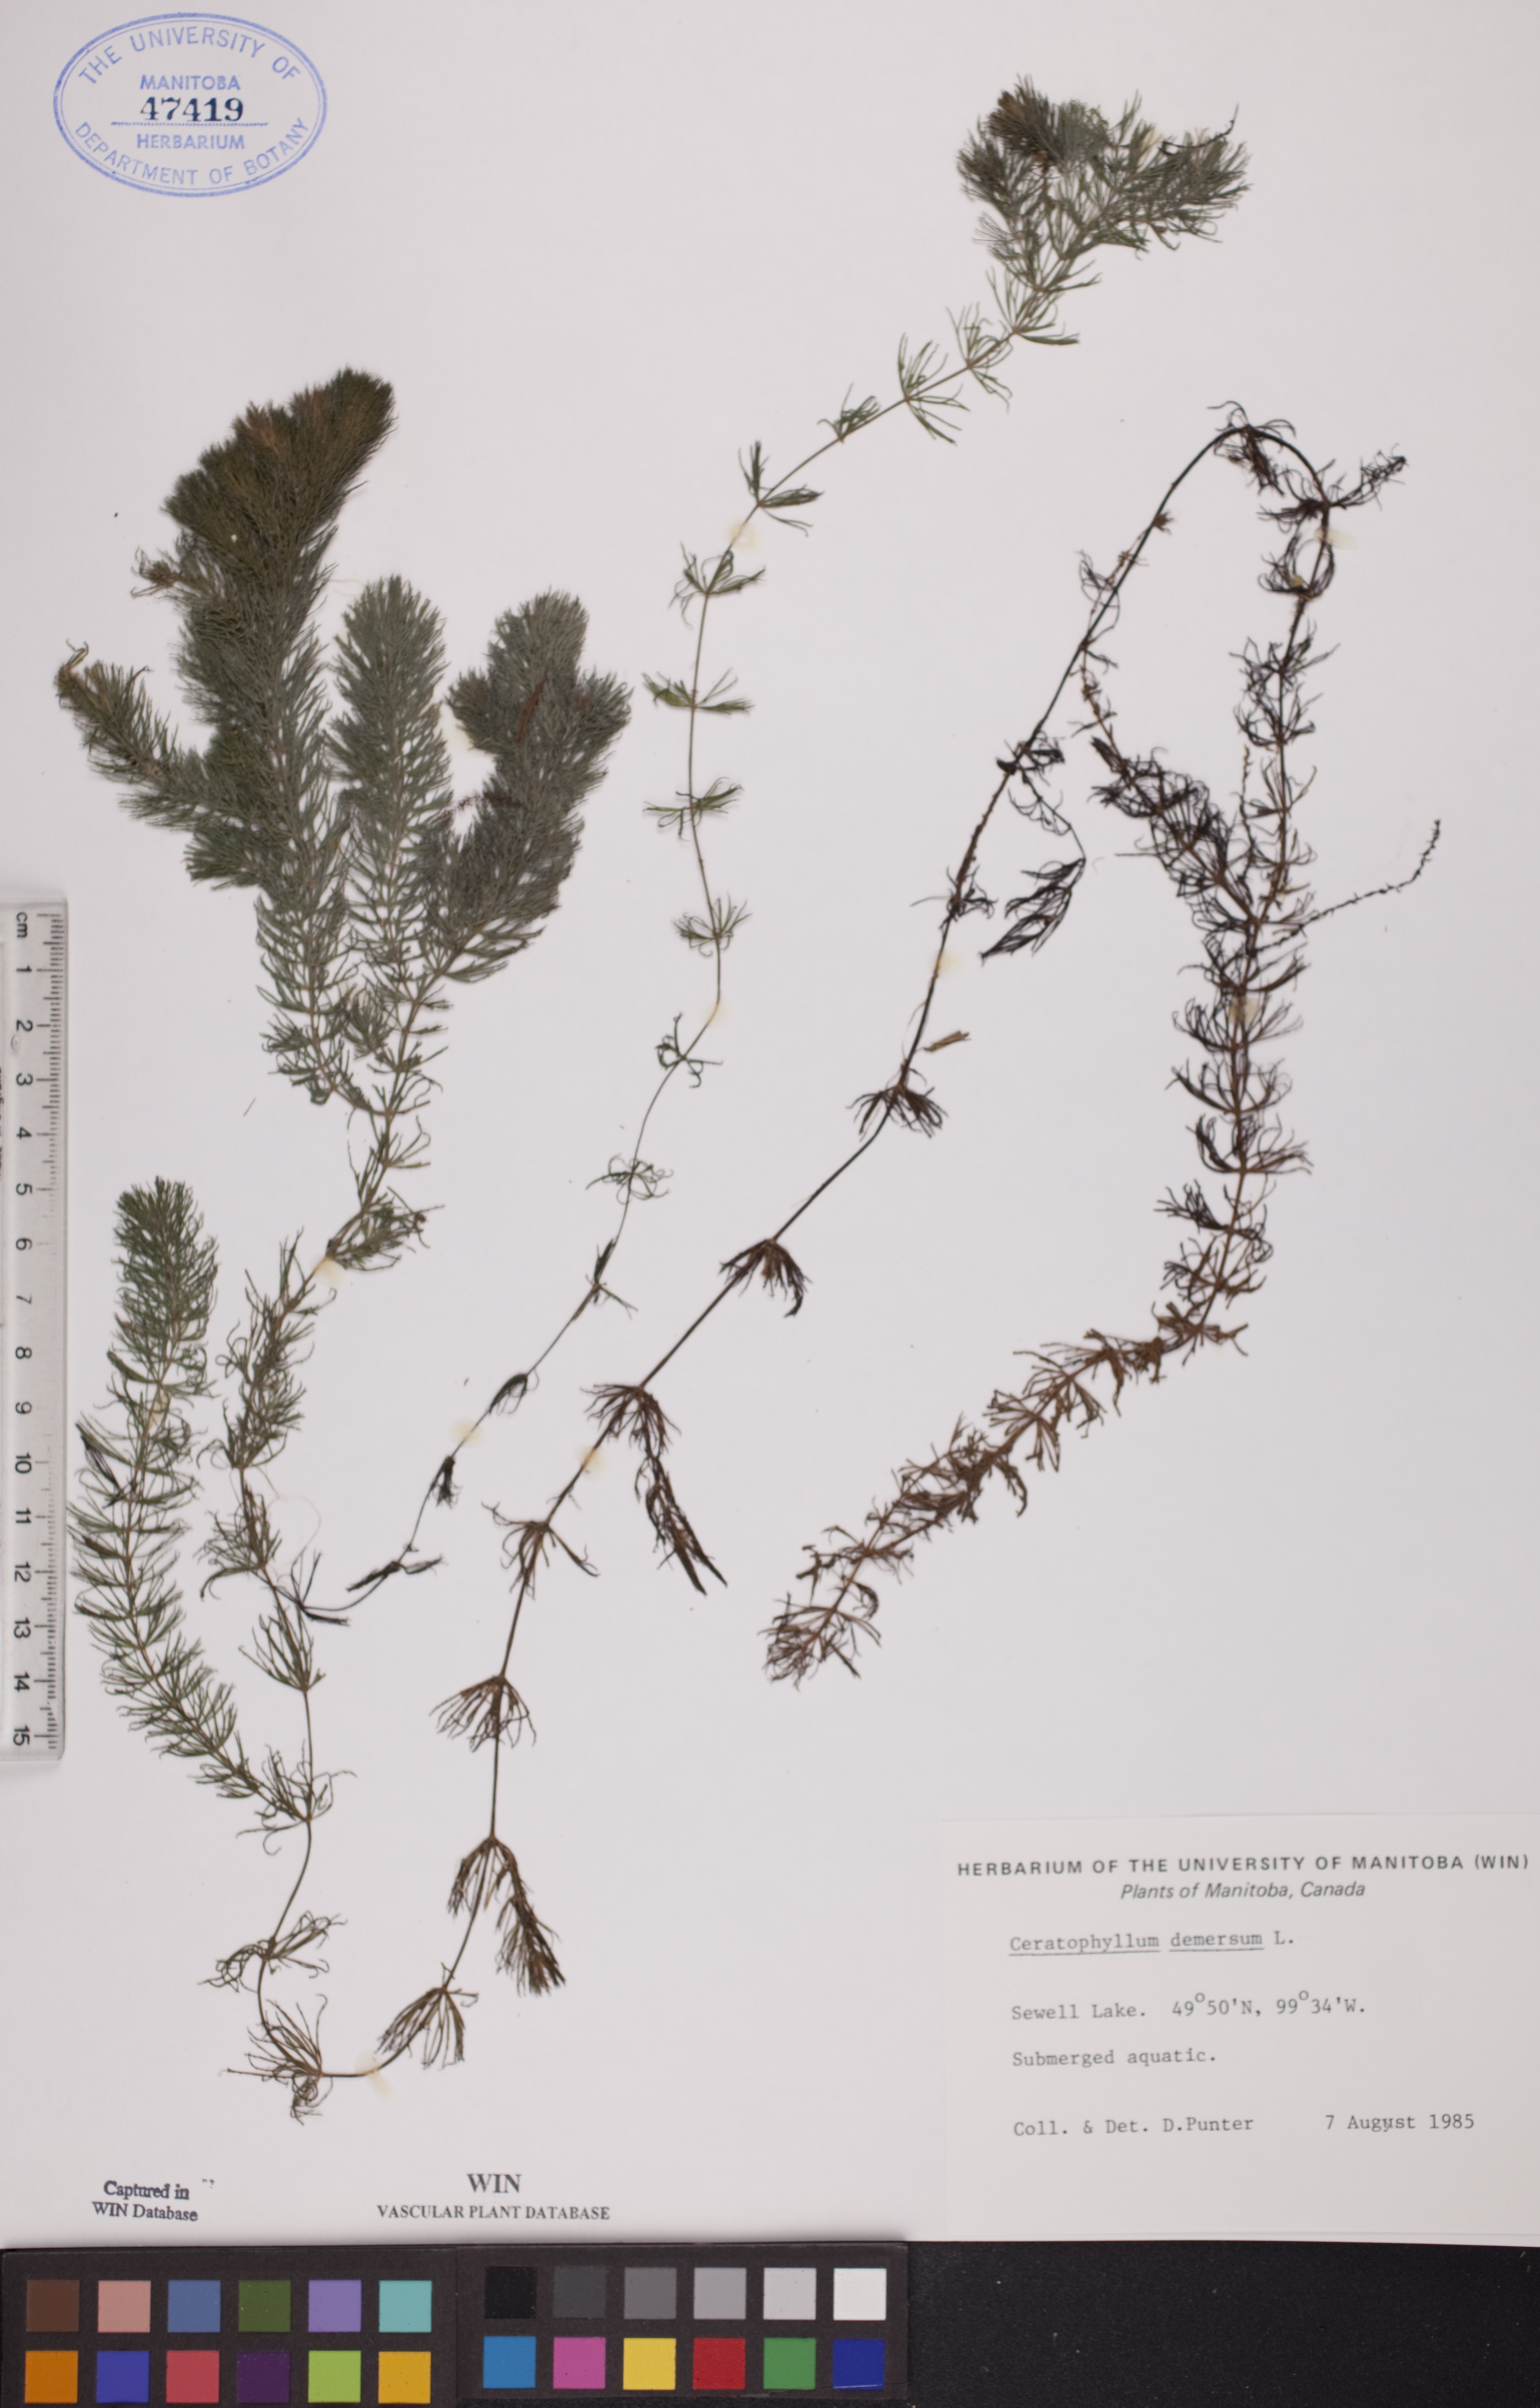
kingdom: Plantae
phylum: Tracheophyta
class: Magnoliopsida
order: Ceratophyllales
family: Ceratophyllaceae
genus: Ceratophyllum
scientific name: Ceratophyllum demersum
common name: Rigid hornwort
